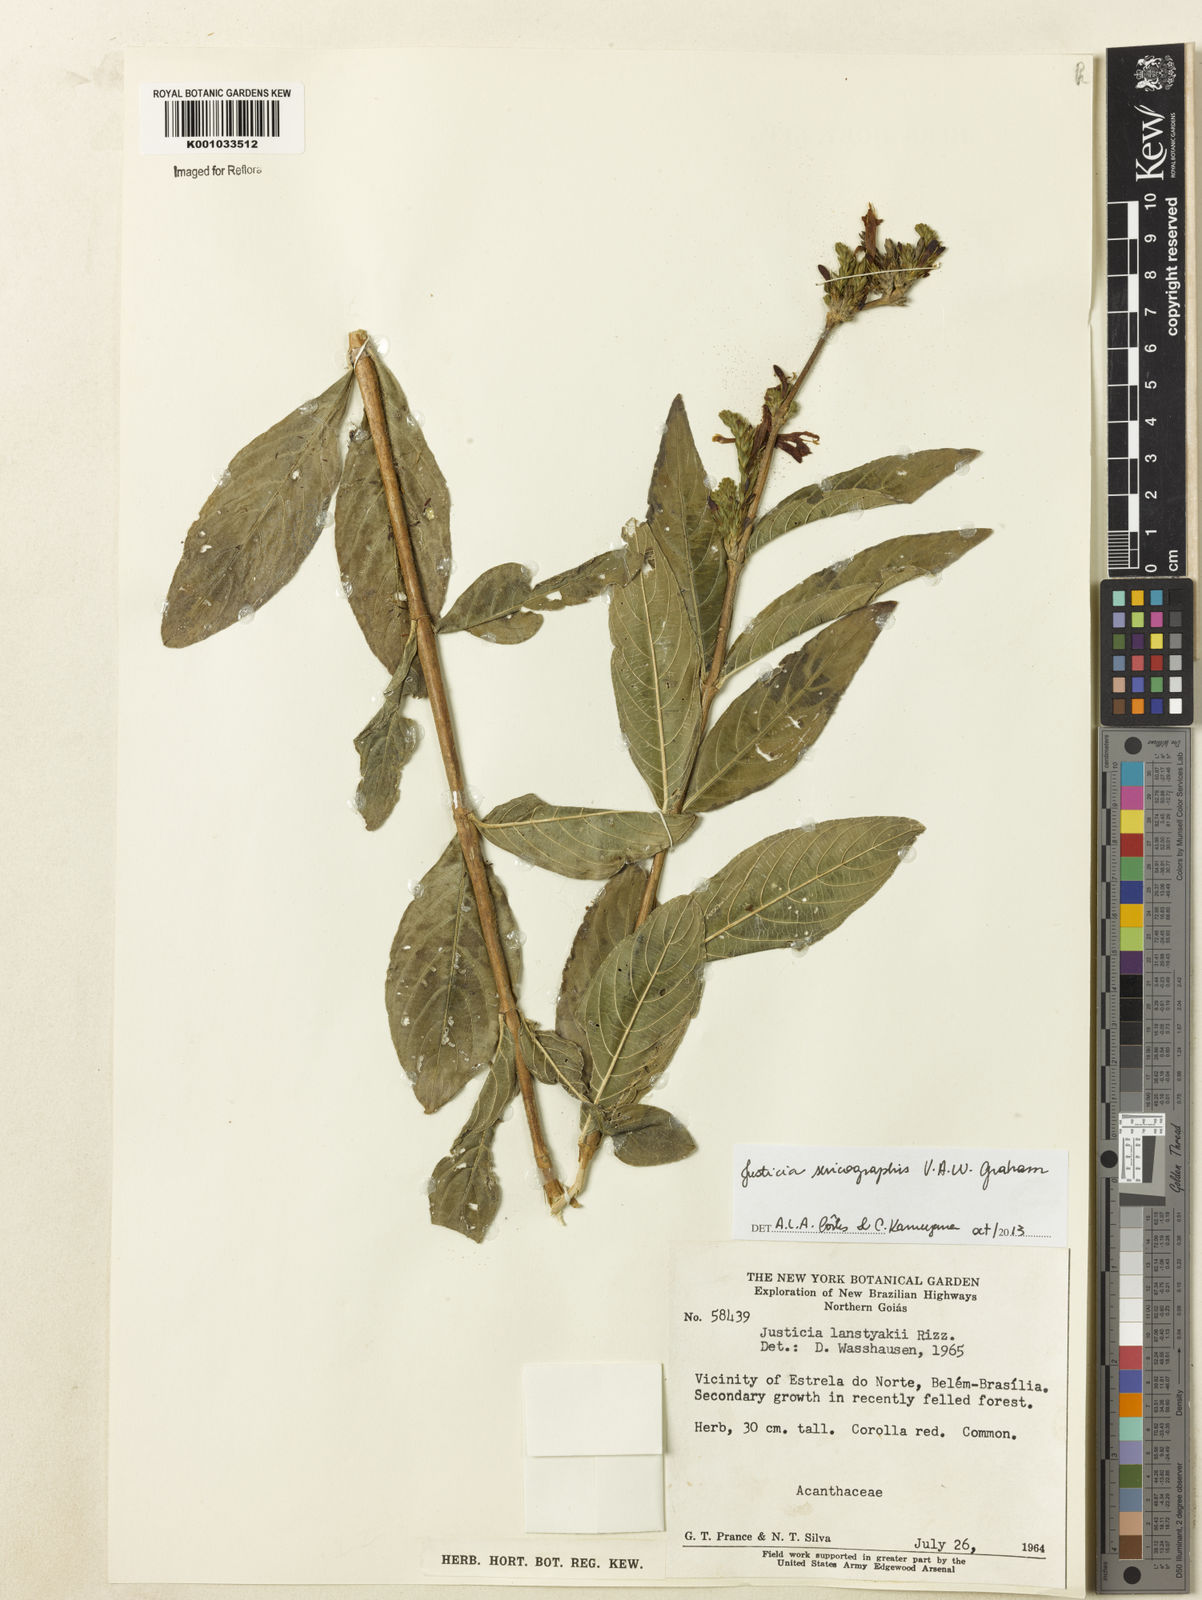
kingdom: Plantae
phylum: Tracheophyta
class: Magnoliopsida
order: Lamiales
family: Acanthaceae
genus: Dianthera
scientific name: Dianthera rigida
